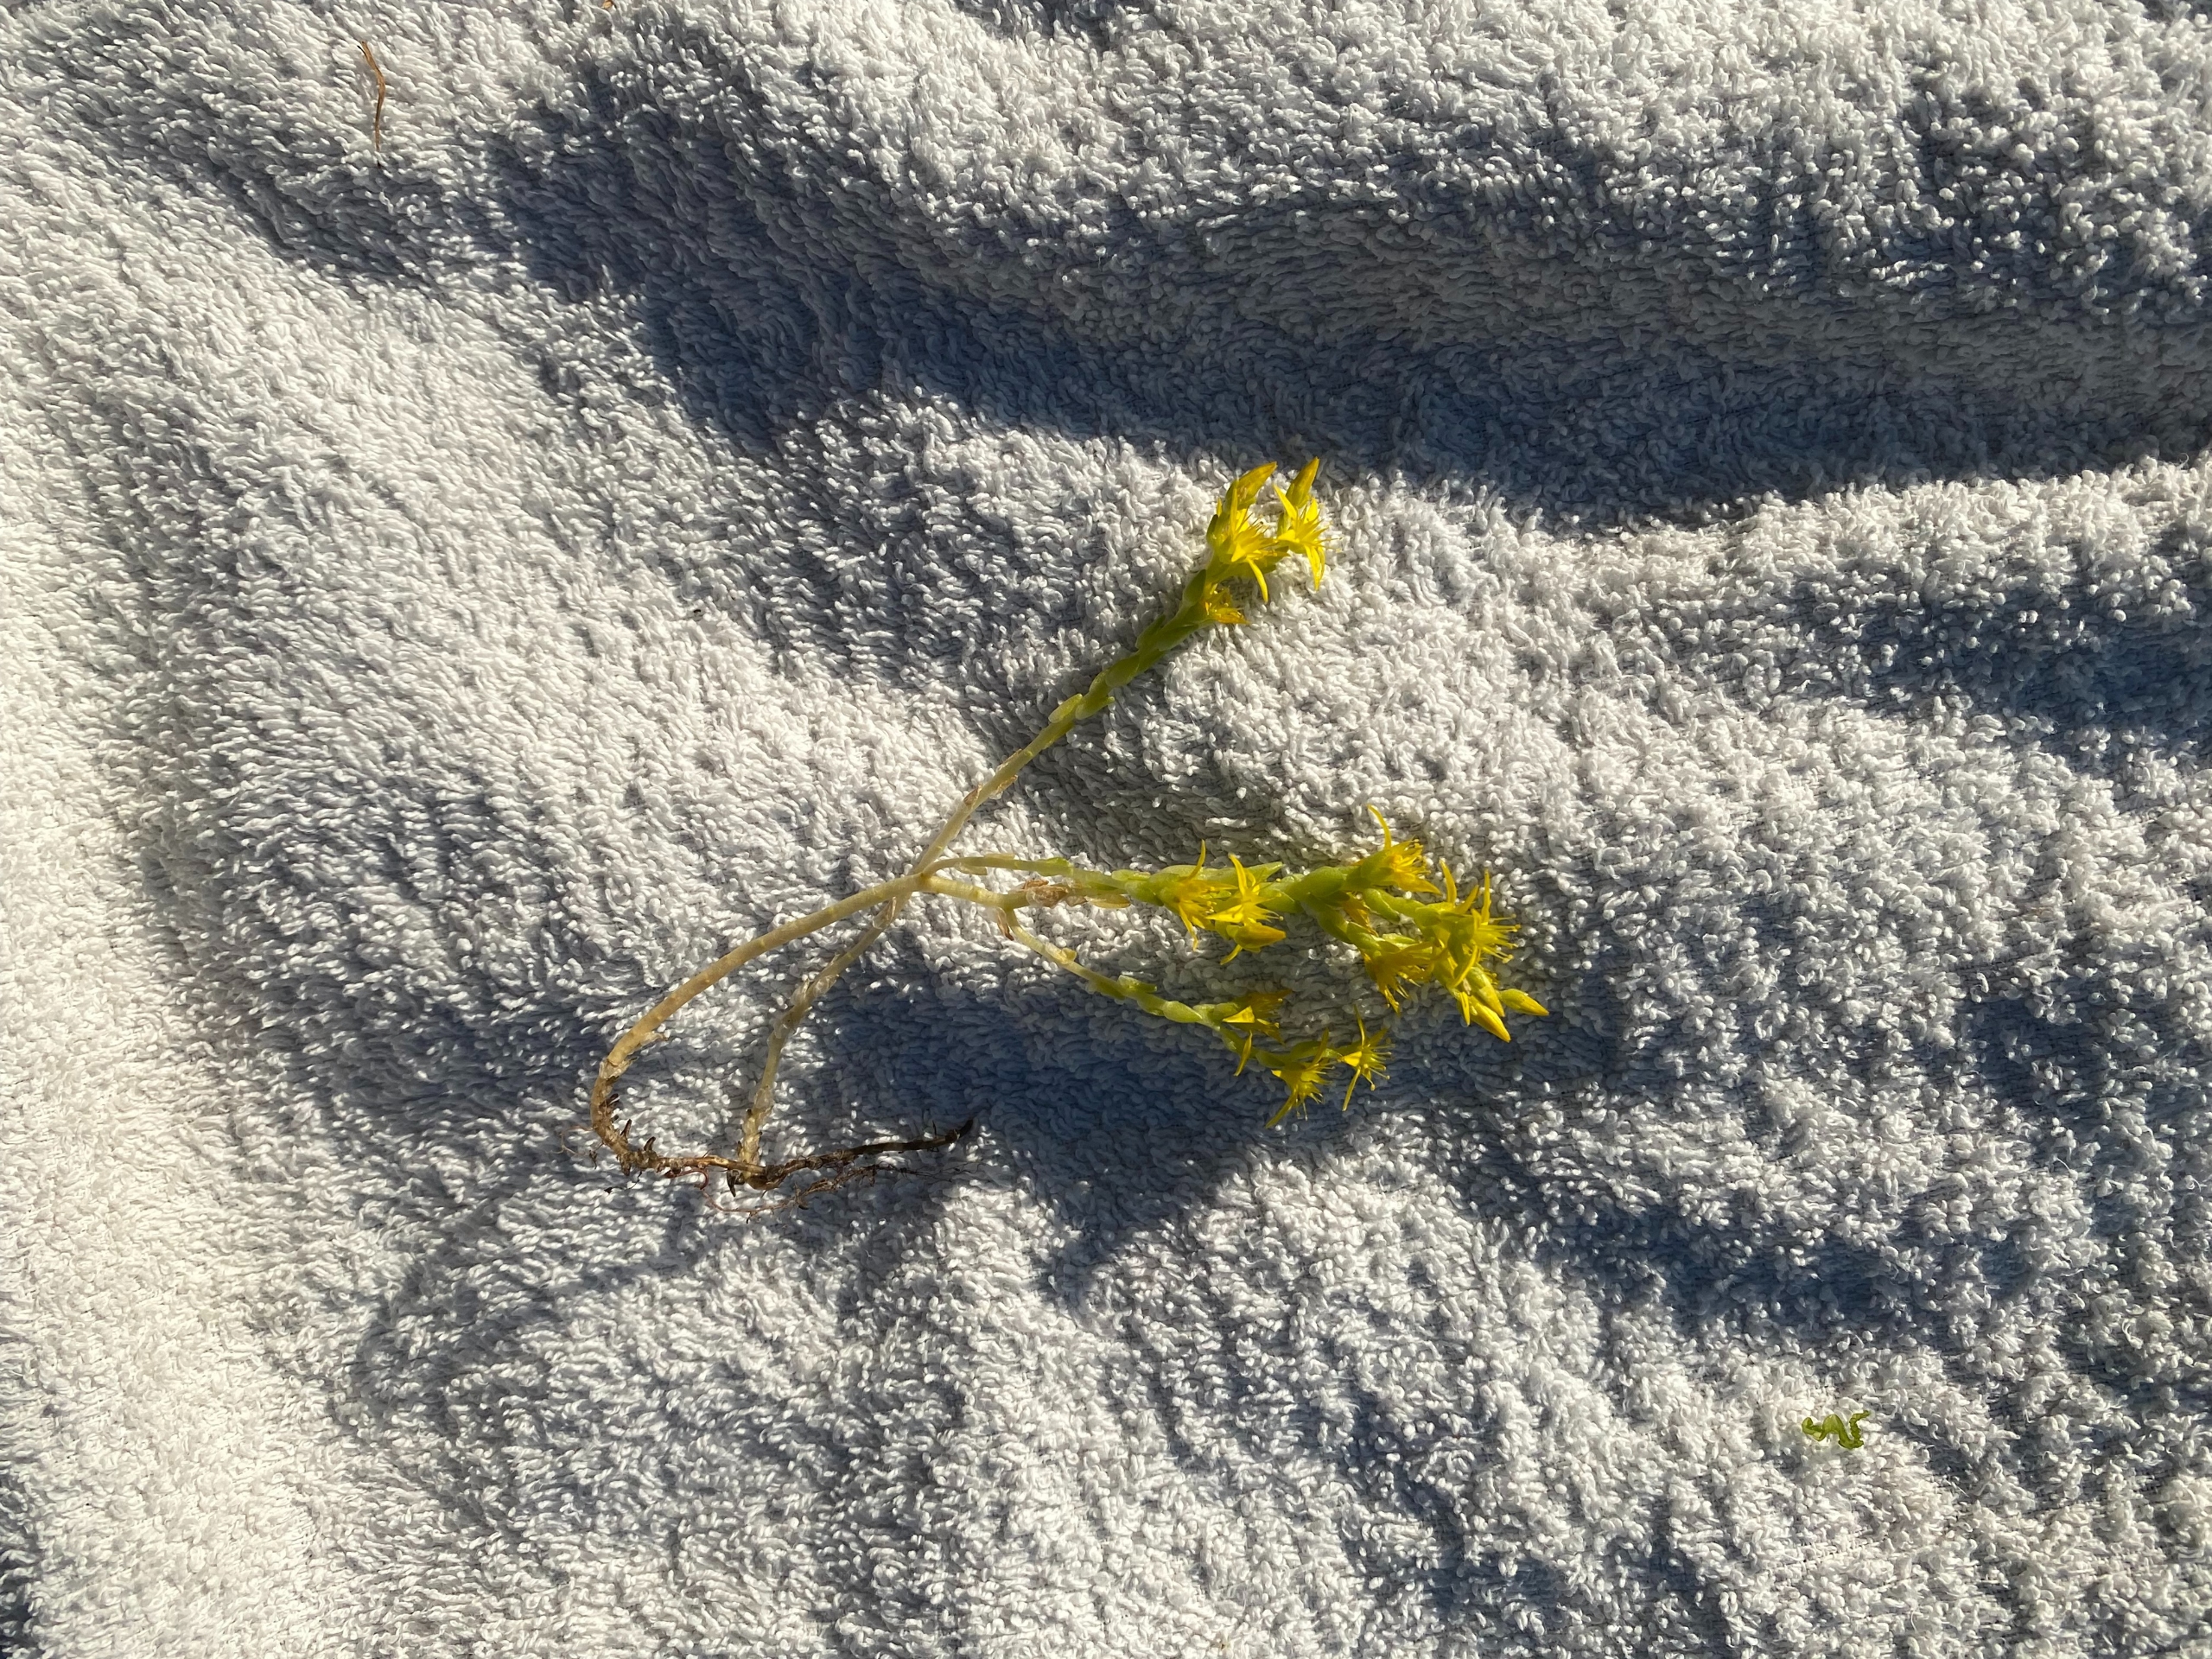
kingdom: Plantae
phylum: Tracheophyta
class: Magnoliopsida
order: Saxifragales
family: Crassulaceae
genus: Sedum
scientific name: Sedum acre
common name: Bidende stenurt
